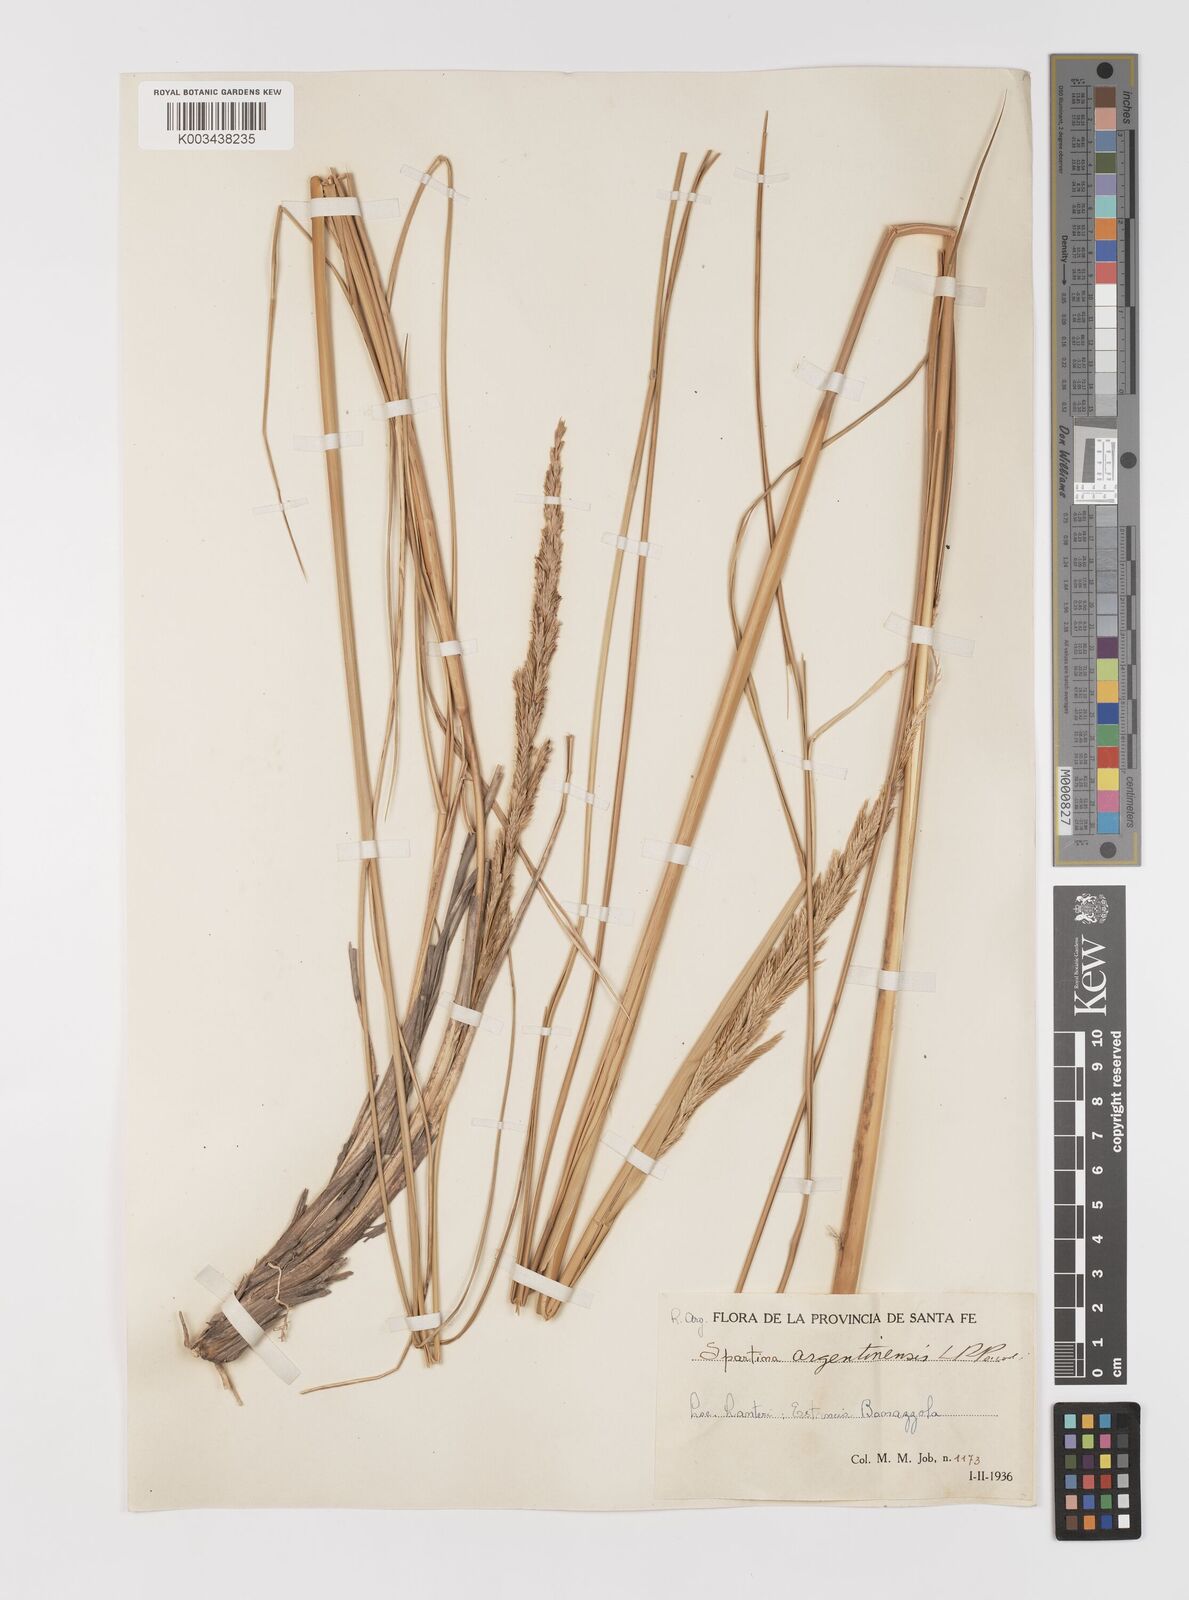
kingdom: Plantae
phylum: Tracheophyta
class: Liliopsida
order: Poales
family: Poaceae
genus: Sporobolus
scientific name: Sporobolus spartinae
